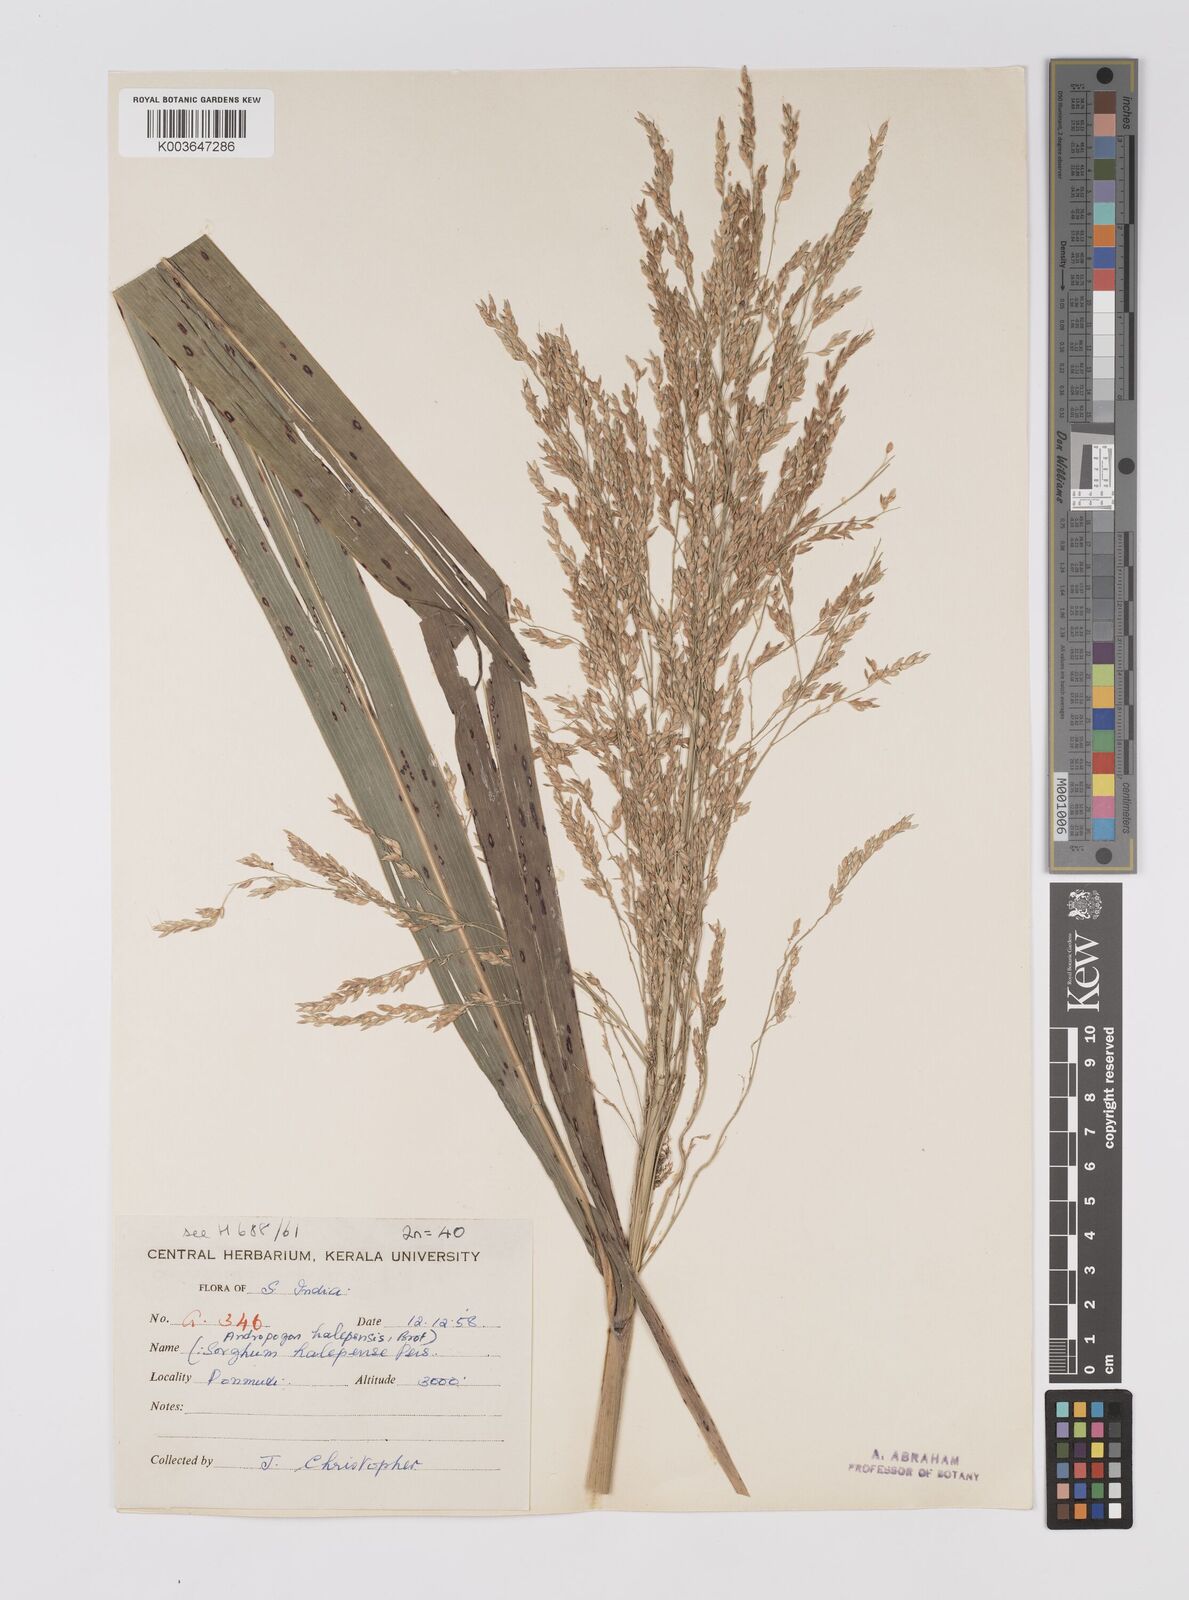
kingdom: Plantae
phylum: Tracheophyta
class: Liliopsida
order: Poales
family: Poaceae
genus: Sorghum
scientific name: Sorghum halepense
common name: Johnson-grass
